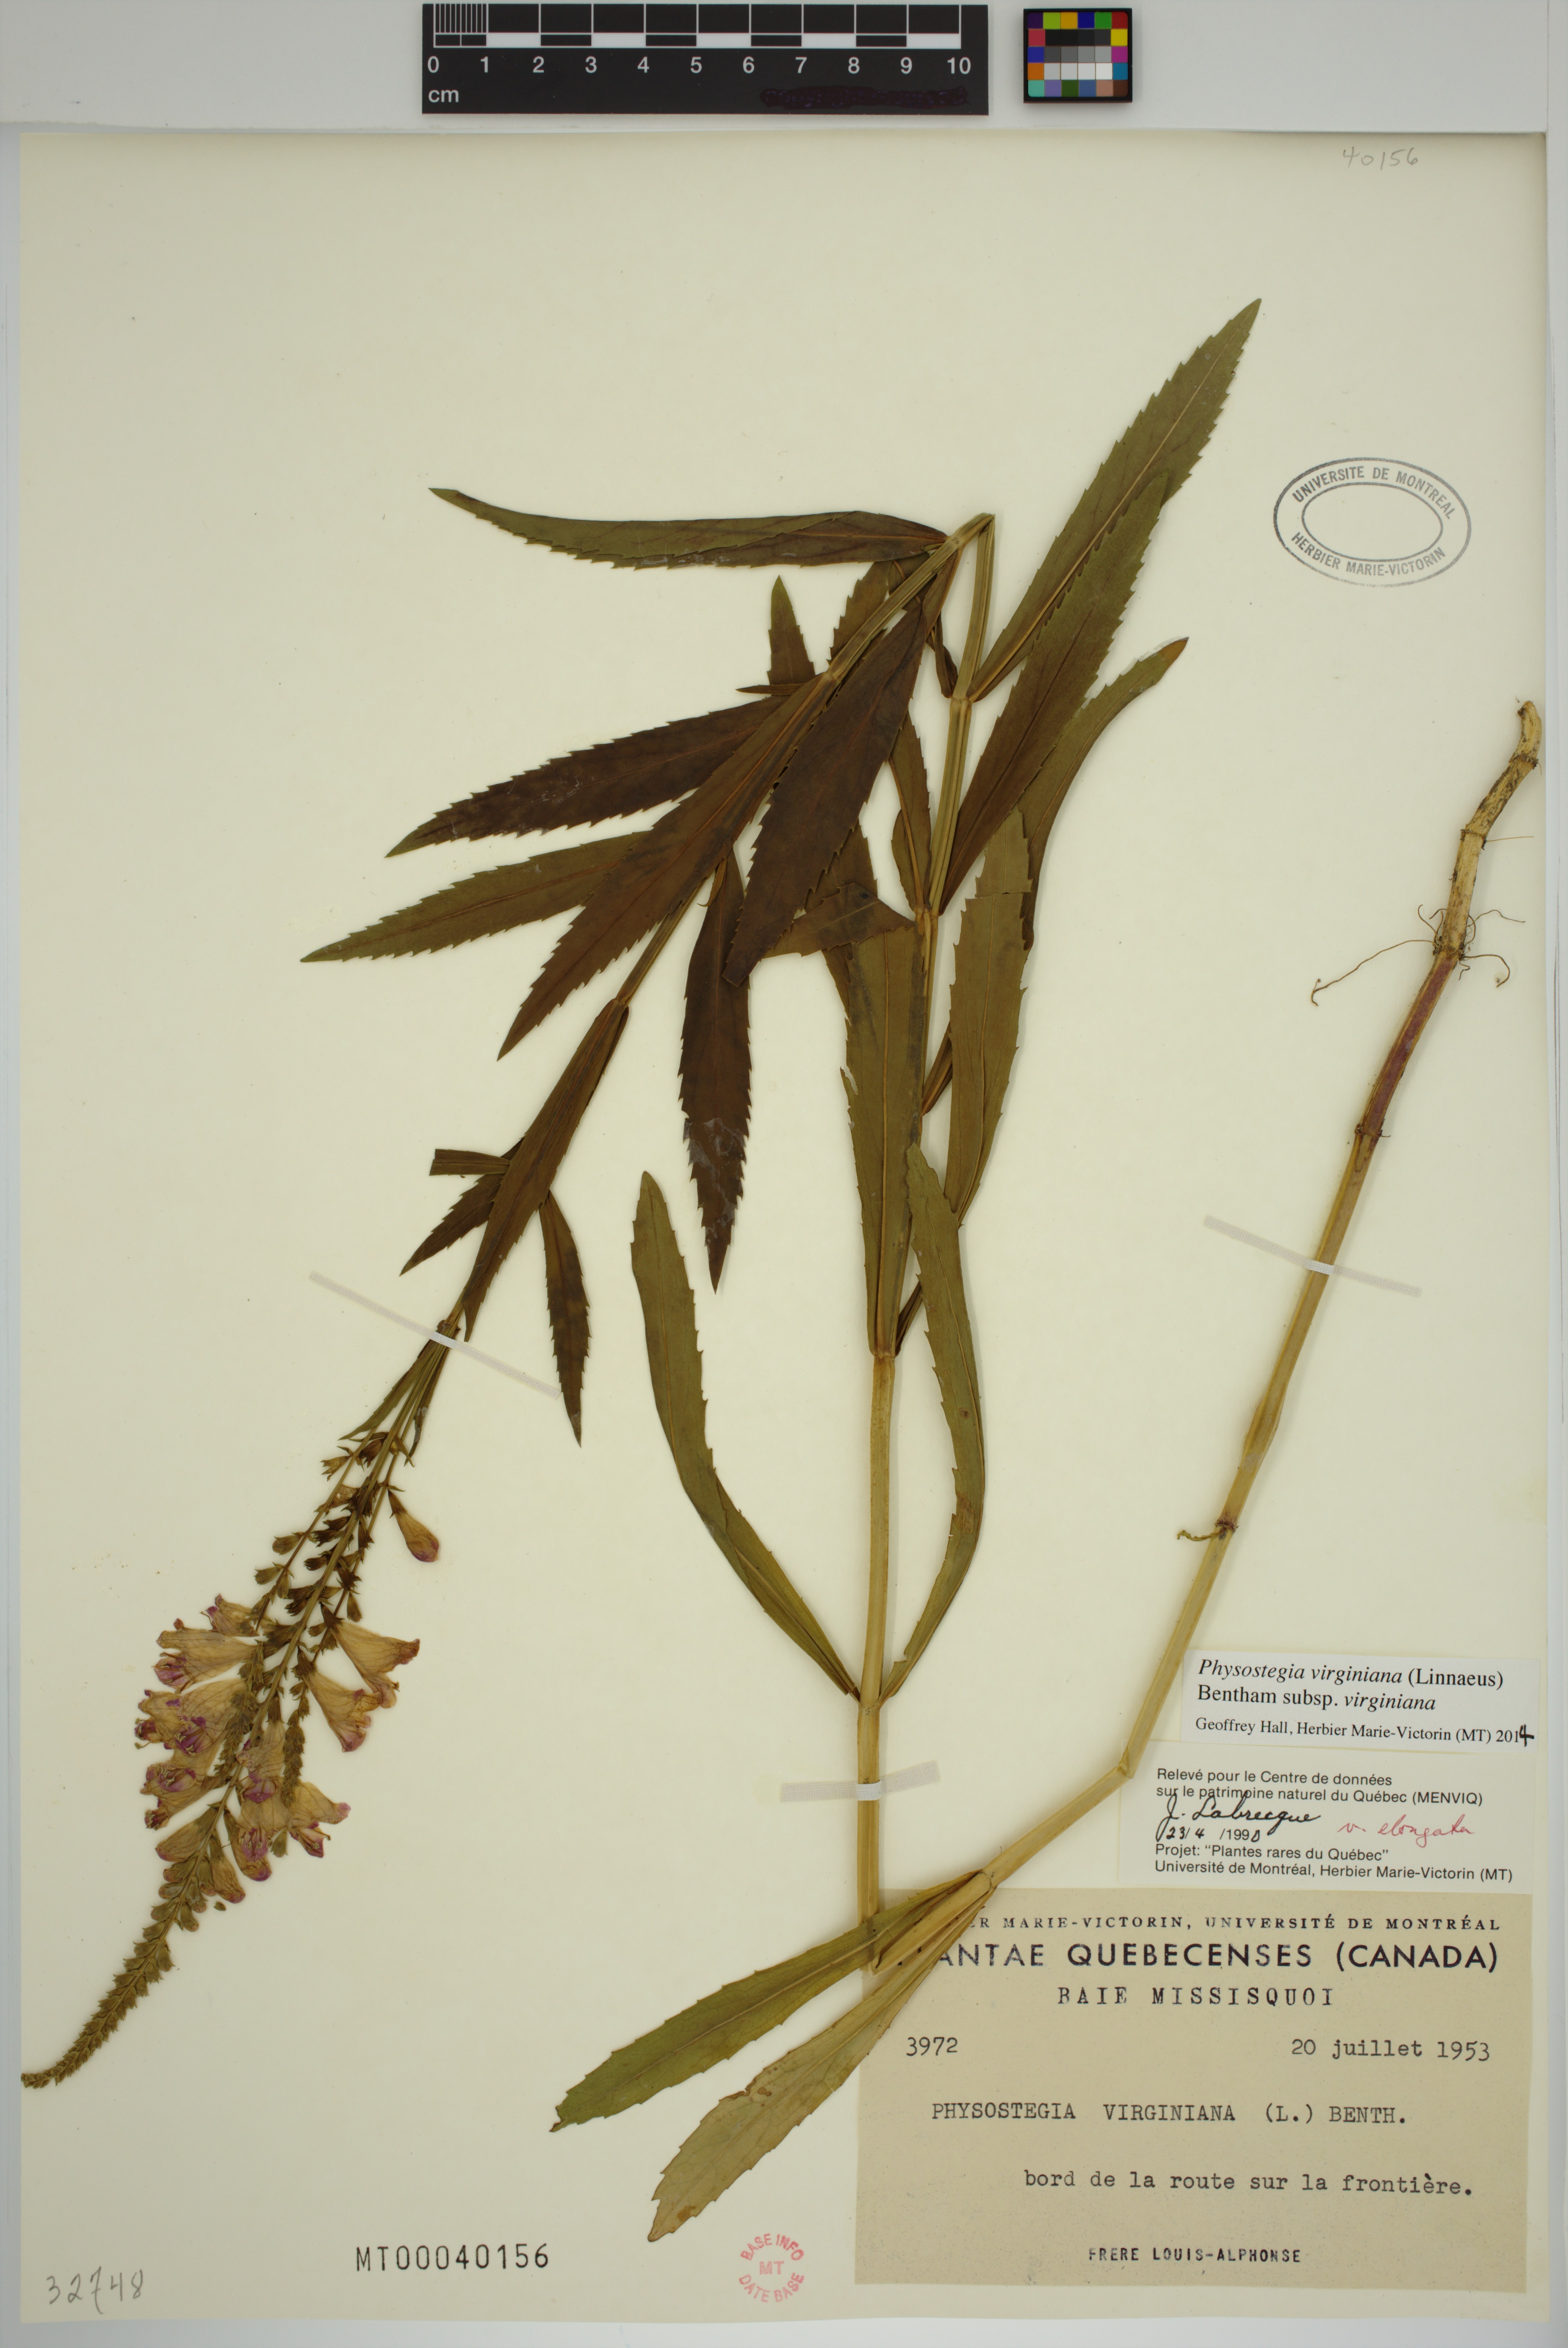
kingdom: Plantae
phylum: Tracheophyta
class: Magnoliopsida
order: Lamiales
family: Lamiaceae
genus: Physostegia
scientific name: Physostegia virginiana
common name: Obedient-plant
